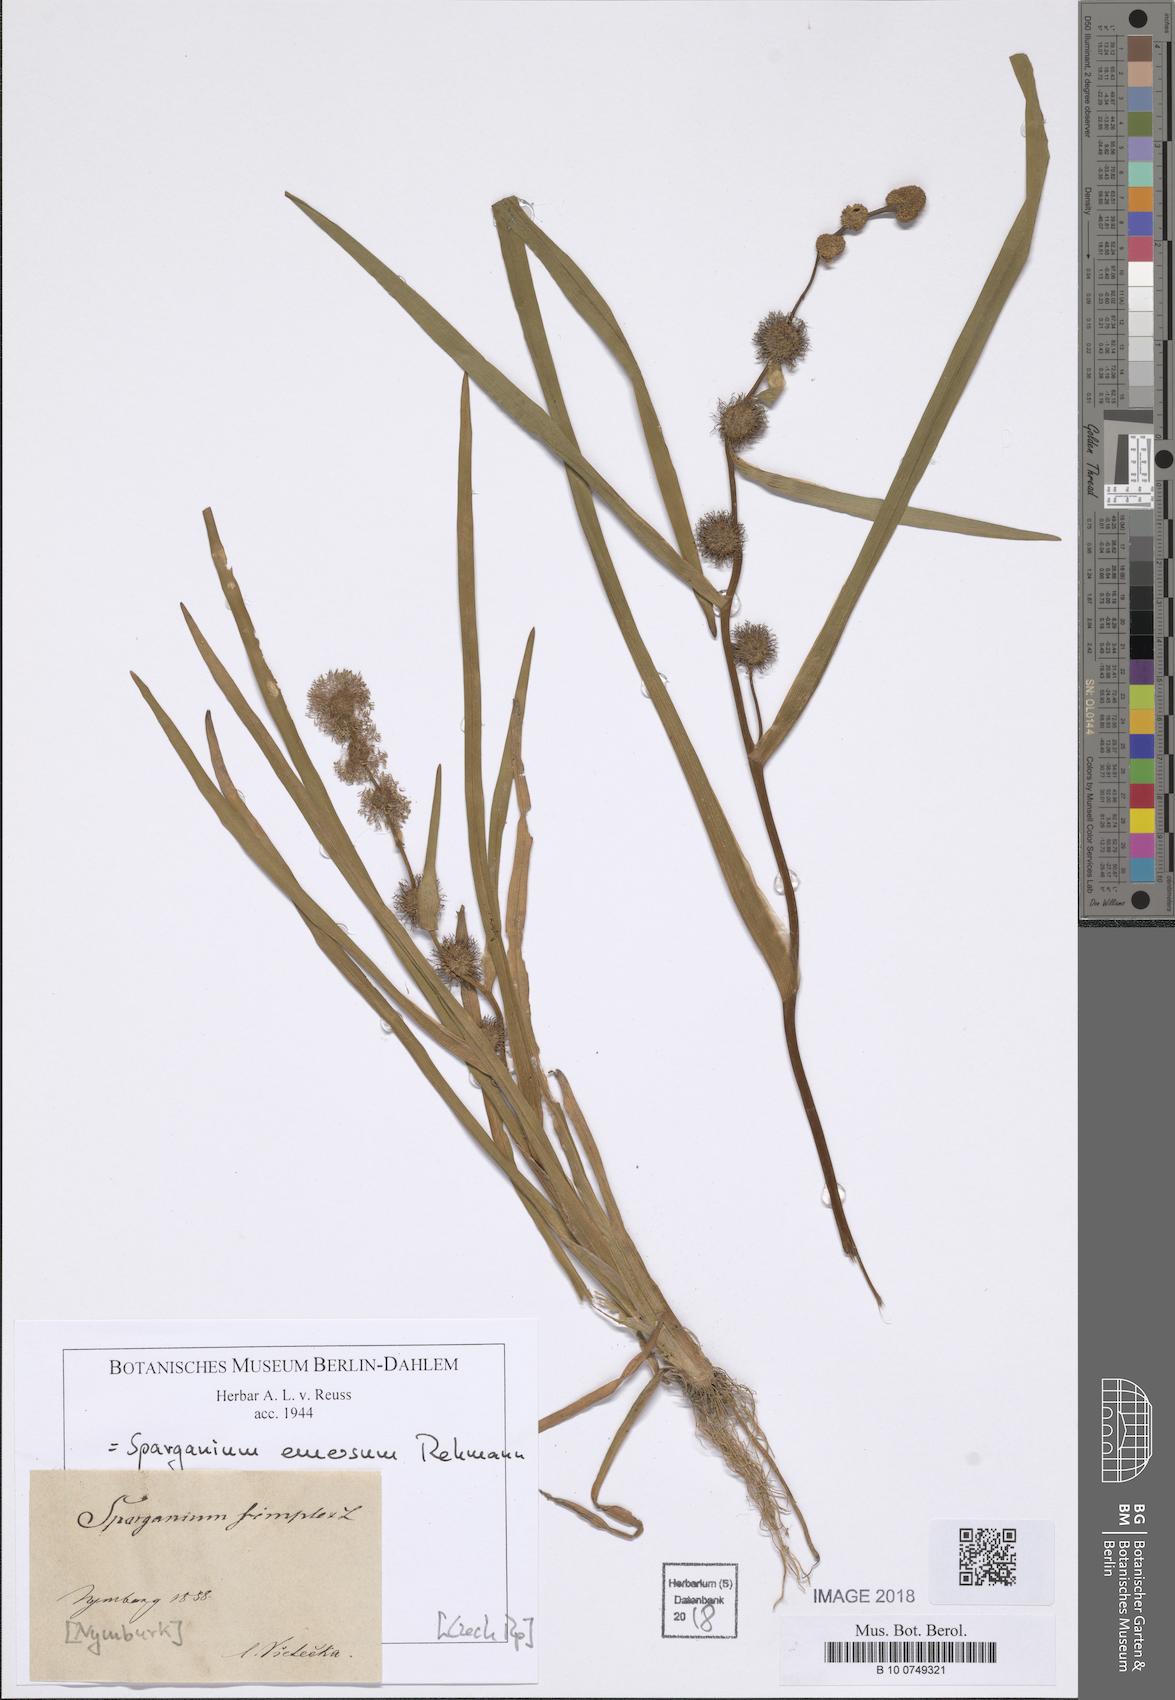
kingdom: Plantae
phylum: Tracheophyta
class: Liliopsida
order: Poales
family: Typhaceae
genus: Sparganium
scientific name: Sparganium emersum
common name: Unbranched bur-reed
